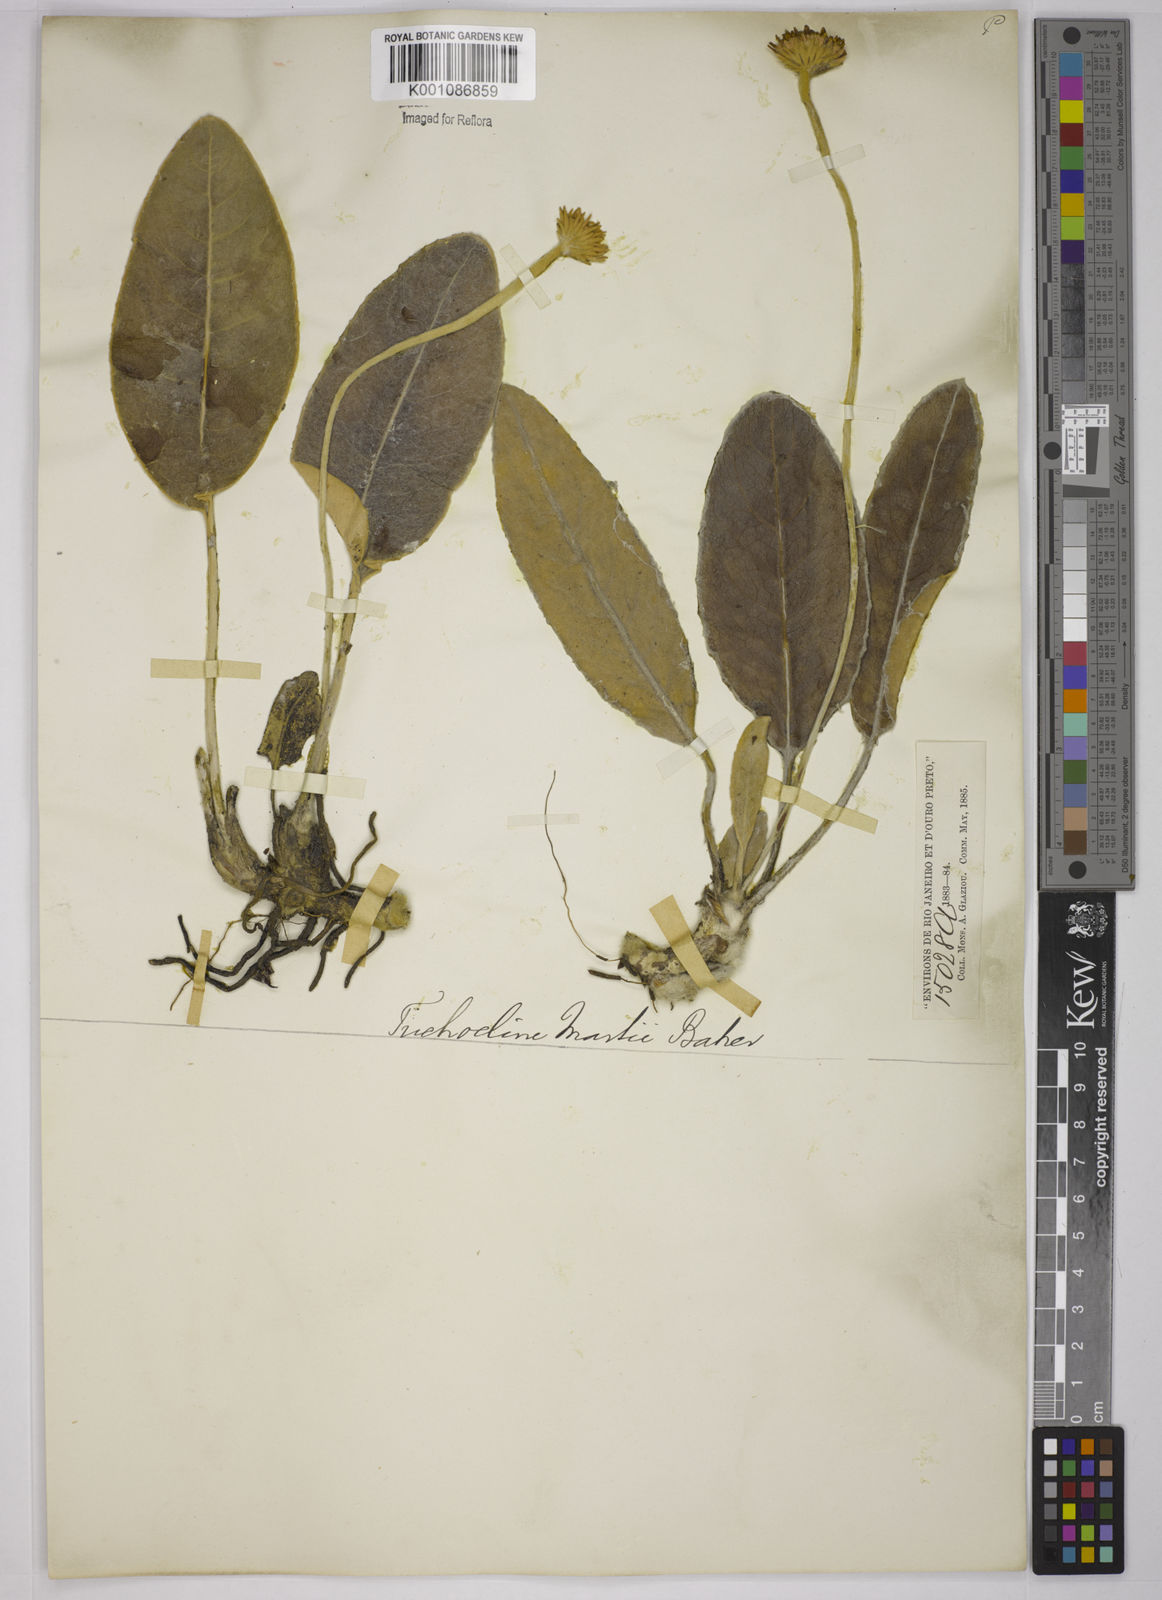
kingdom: Plantae
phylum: Tracheophyta
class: Magnoliopsida
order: Asterales
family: Asteraceae
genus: Chaptalia
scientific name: Chaptalia martii
